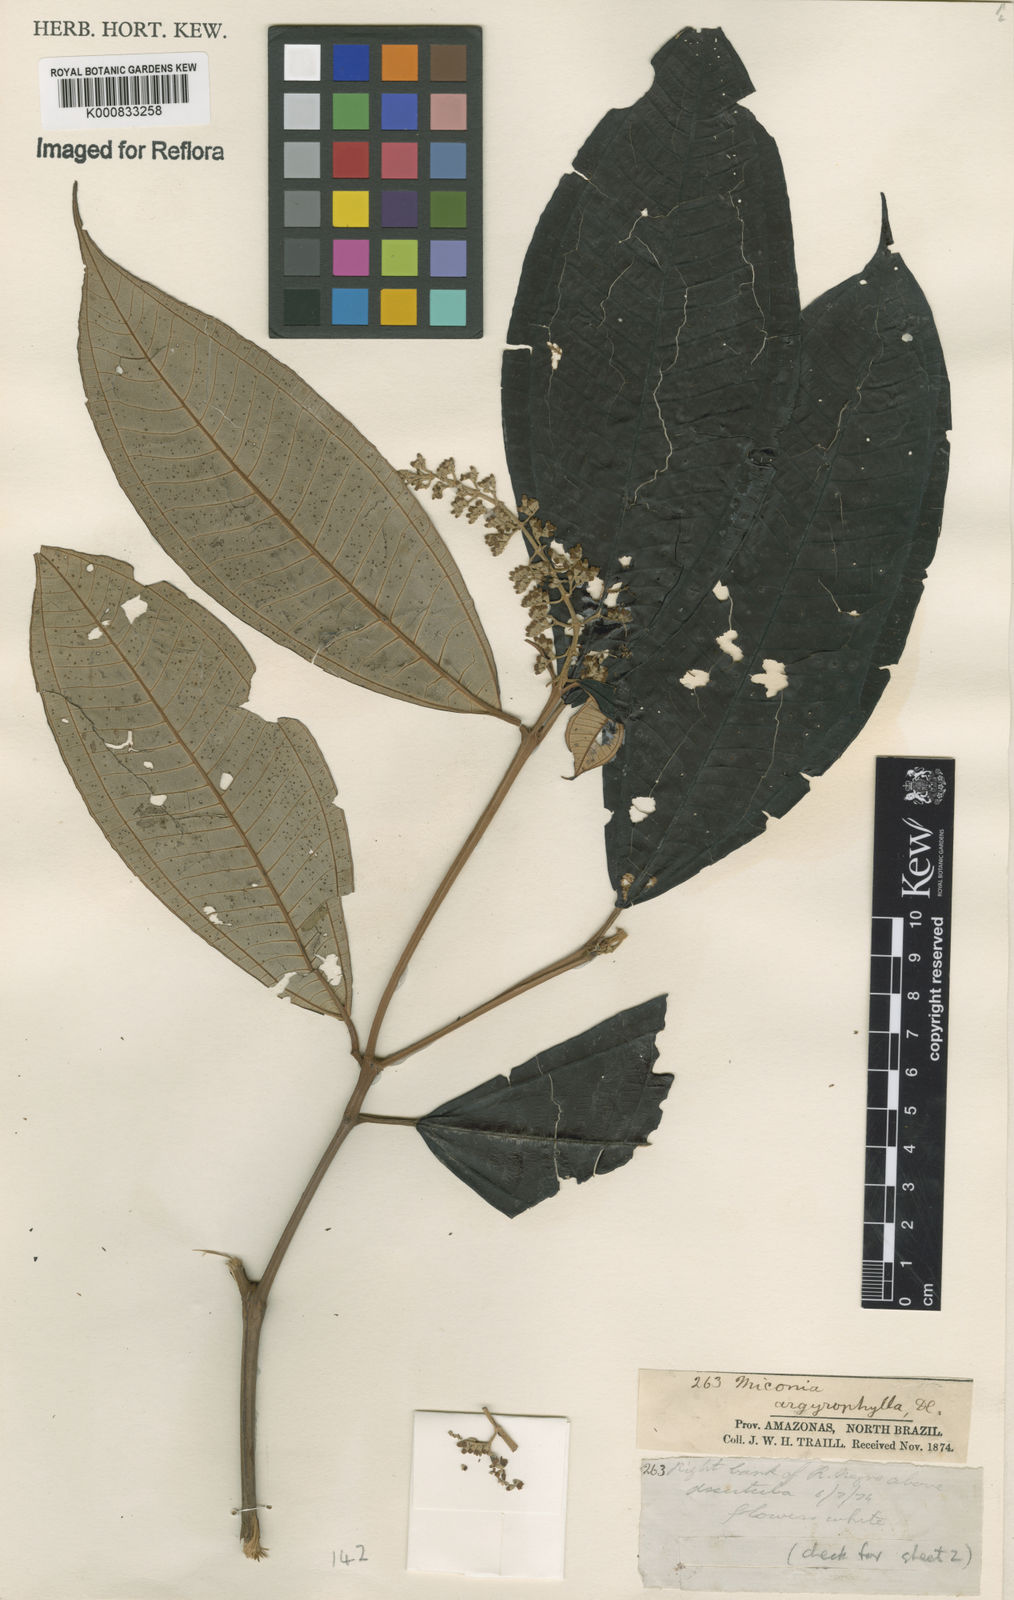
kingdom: Plantae
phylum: Tracheophyta
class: Magnoliopsida
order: Myrtales
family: Melastomataceae
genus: Miconia
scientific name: Miconia argyrophylla
